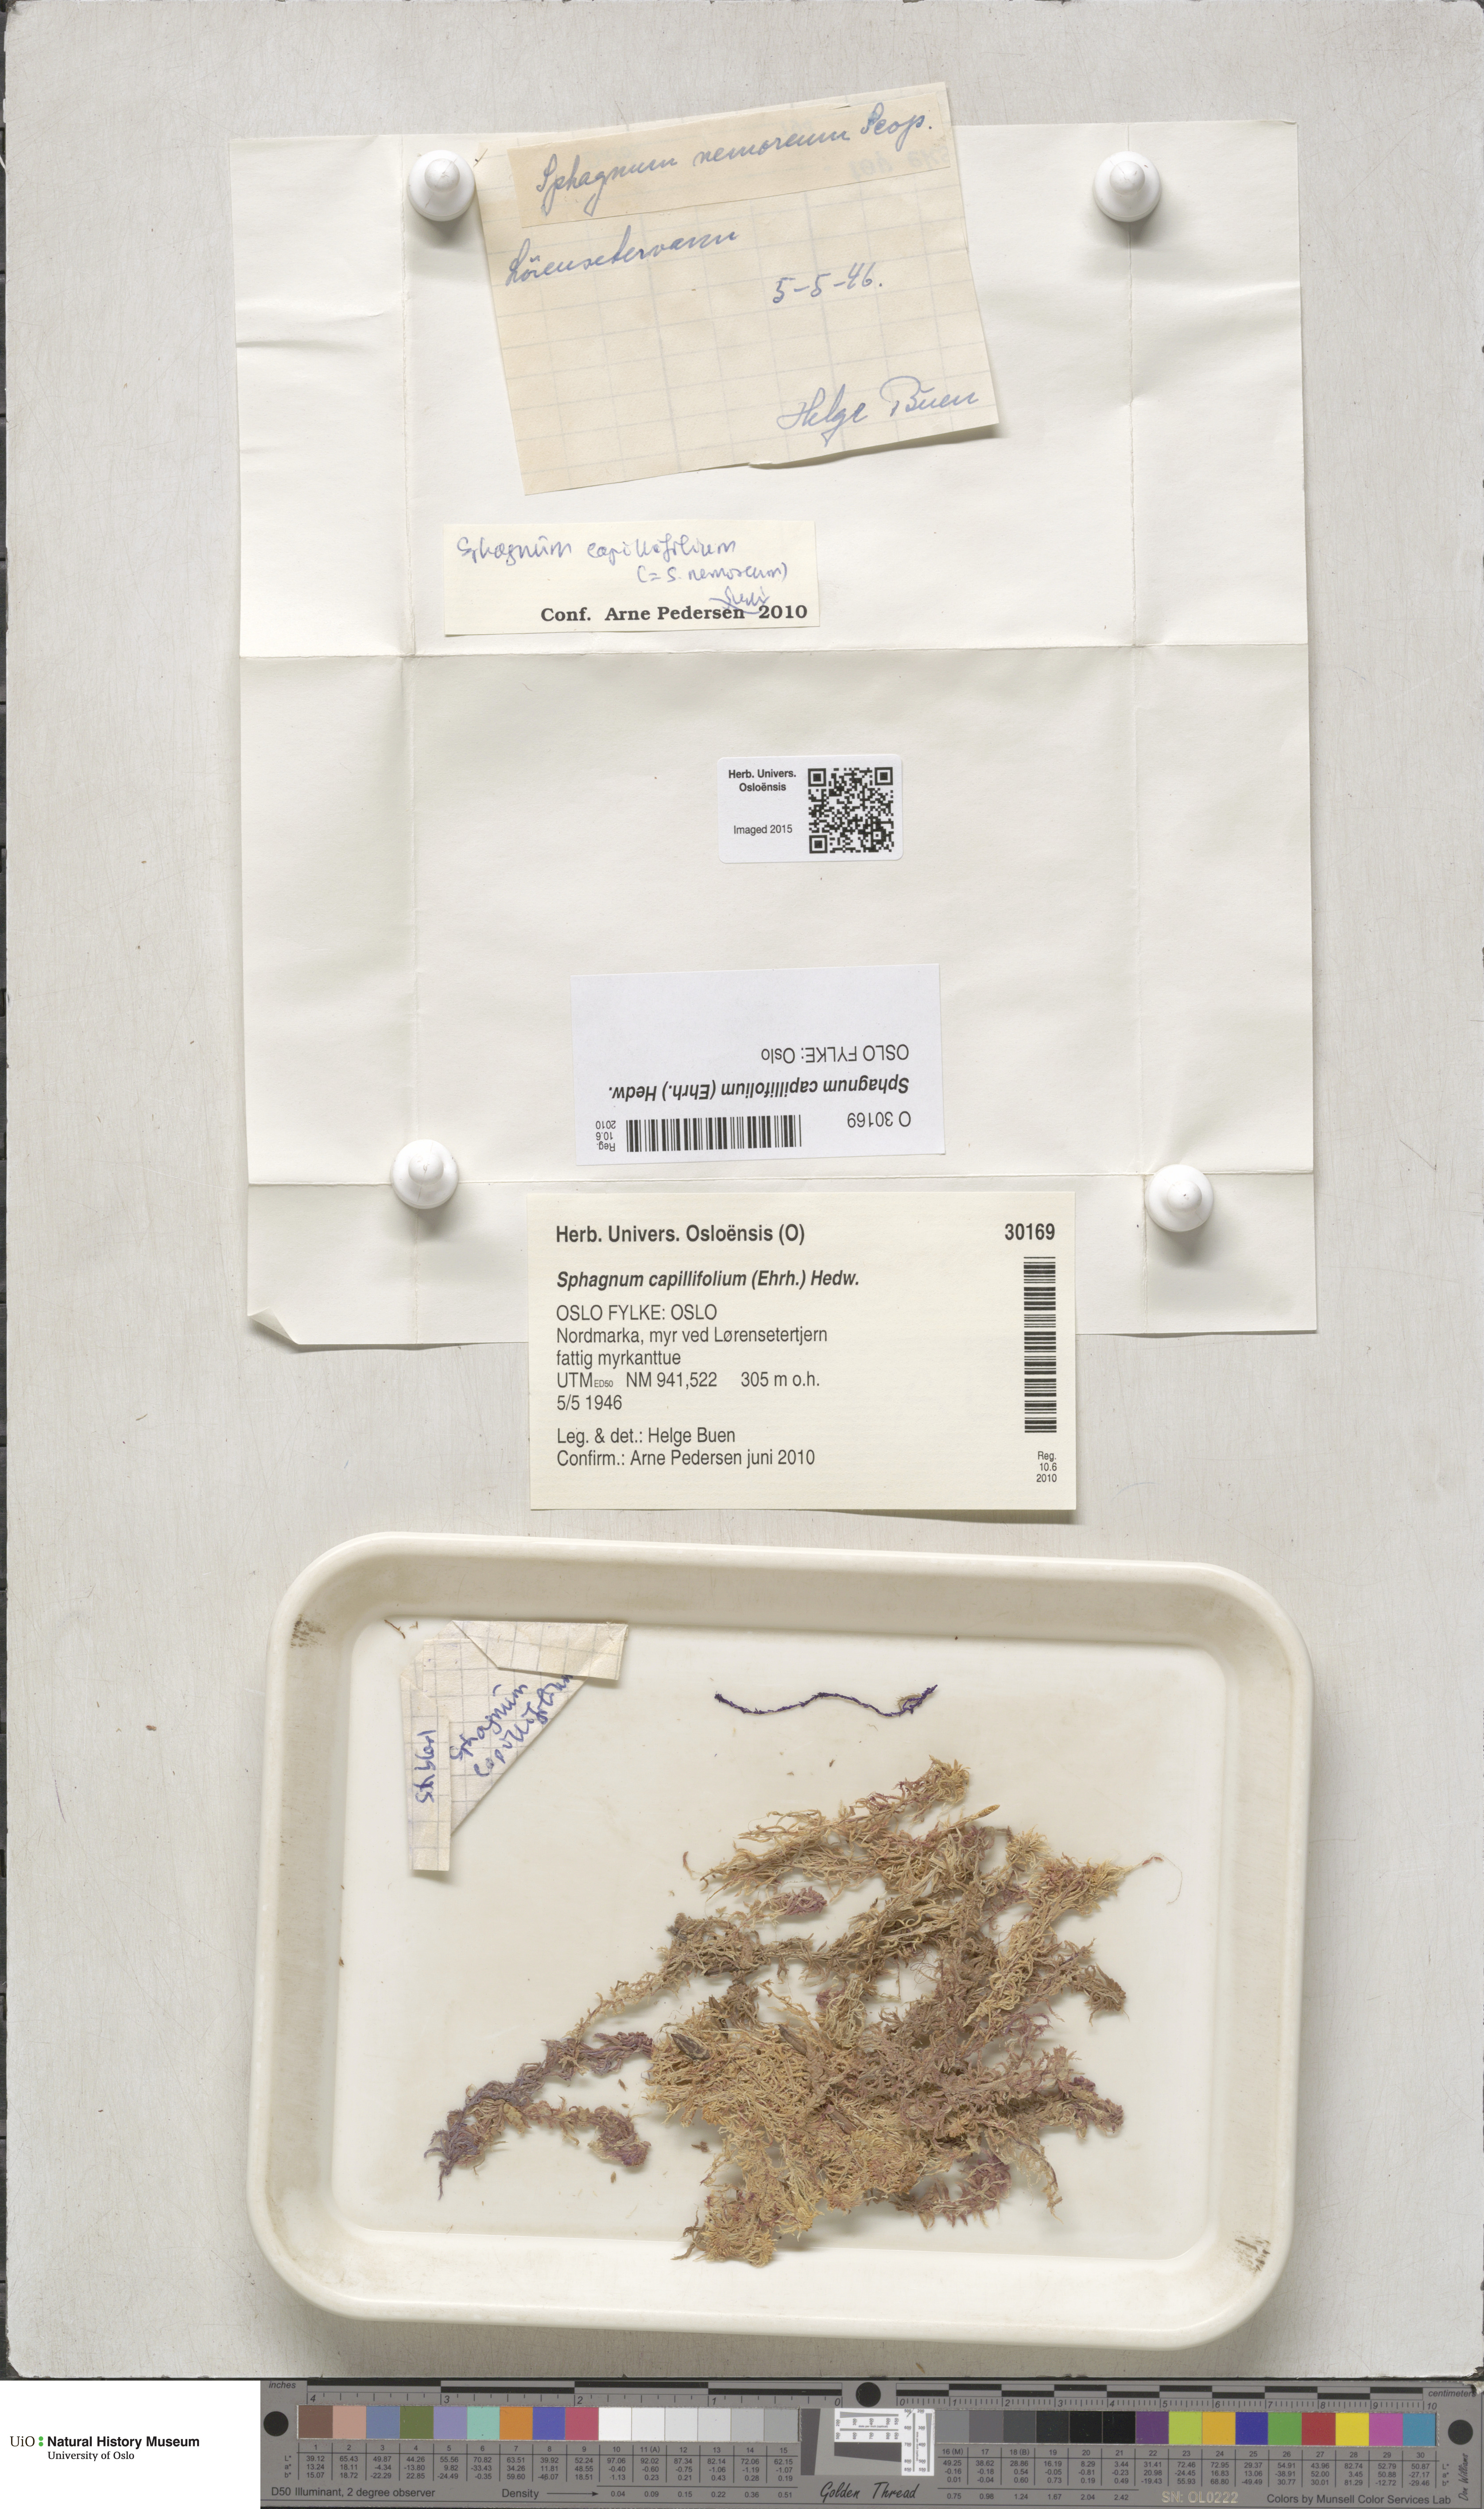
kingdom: Plantae
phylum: Bryophyta
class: Sphagnopsida
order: Sphagnales
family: Sphagnaceae
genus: Sphagnum
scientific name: Sphagnum capillifolium
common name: Small red peat moss
